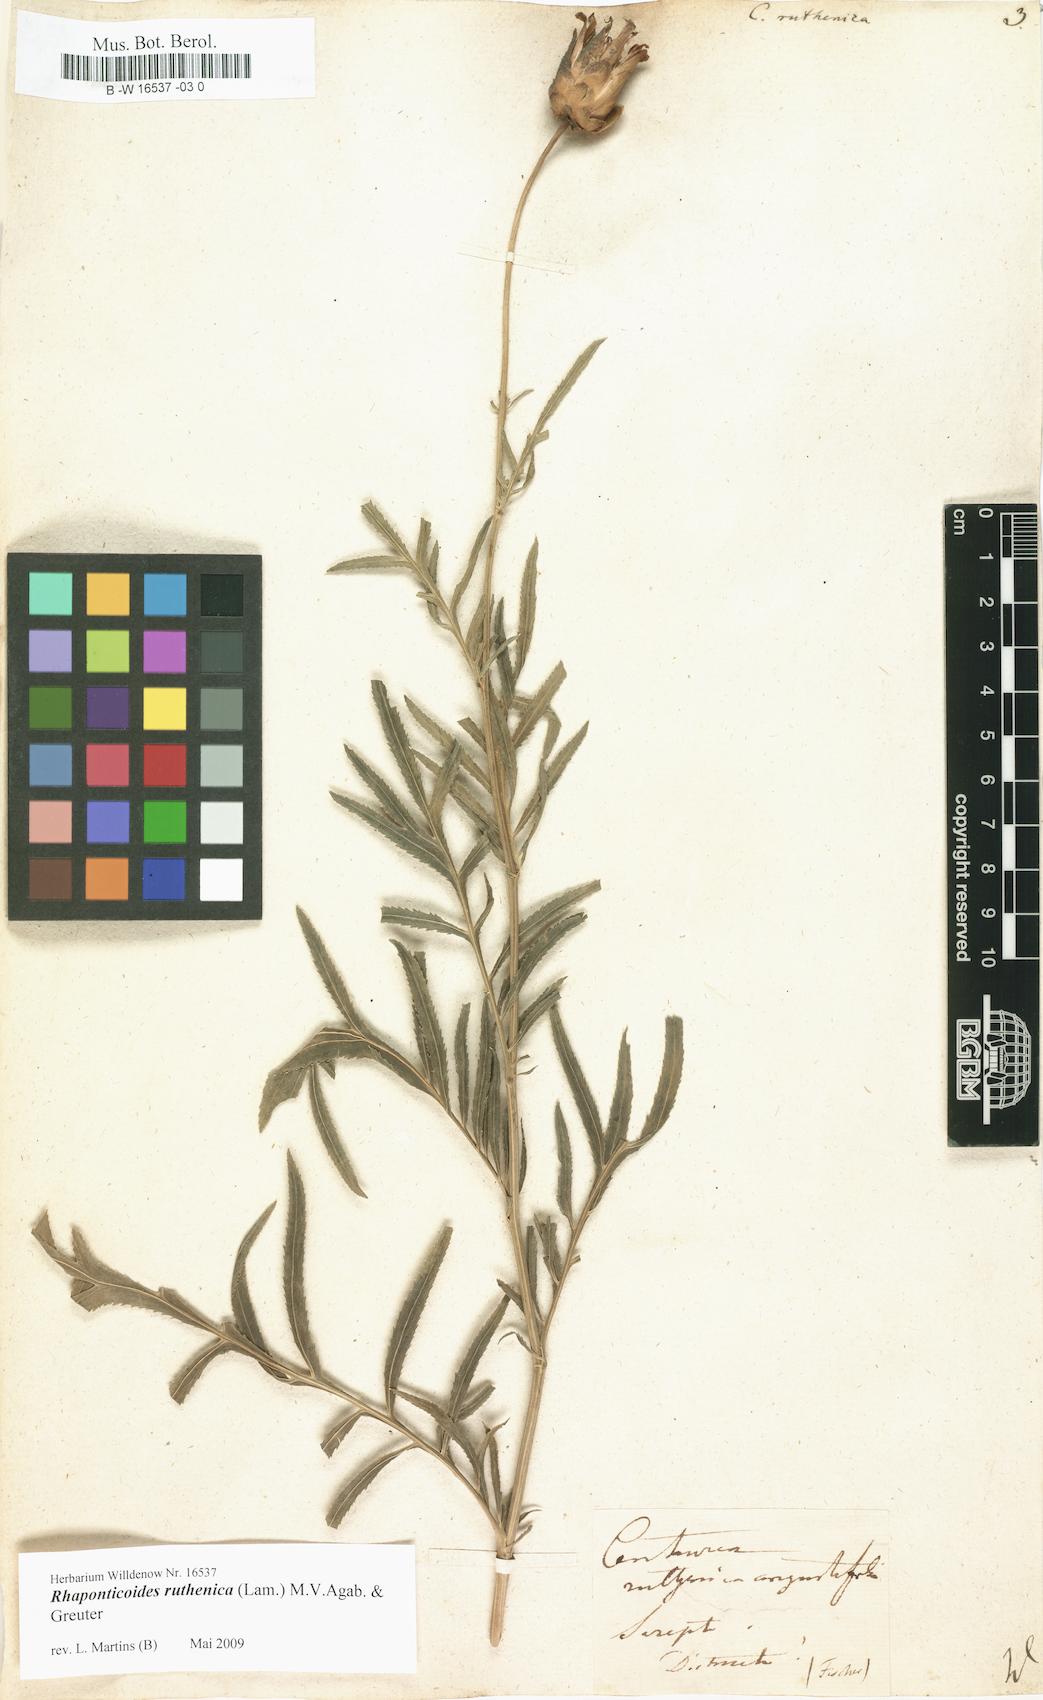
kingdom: Plantae
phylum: Tracheophyta
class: Magnoliopsida
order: Asterales
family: Asteraceae
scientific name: Asteraceae
